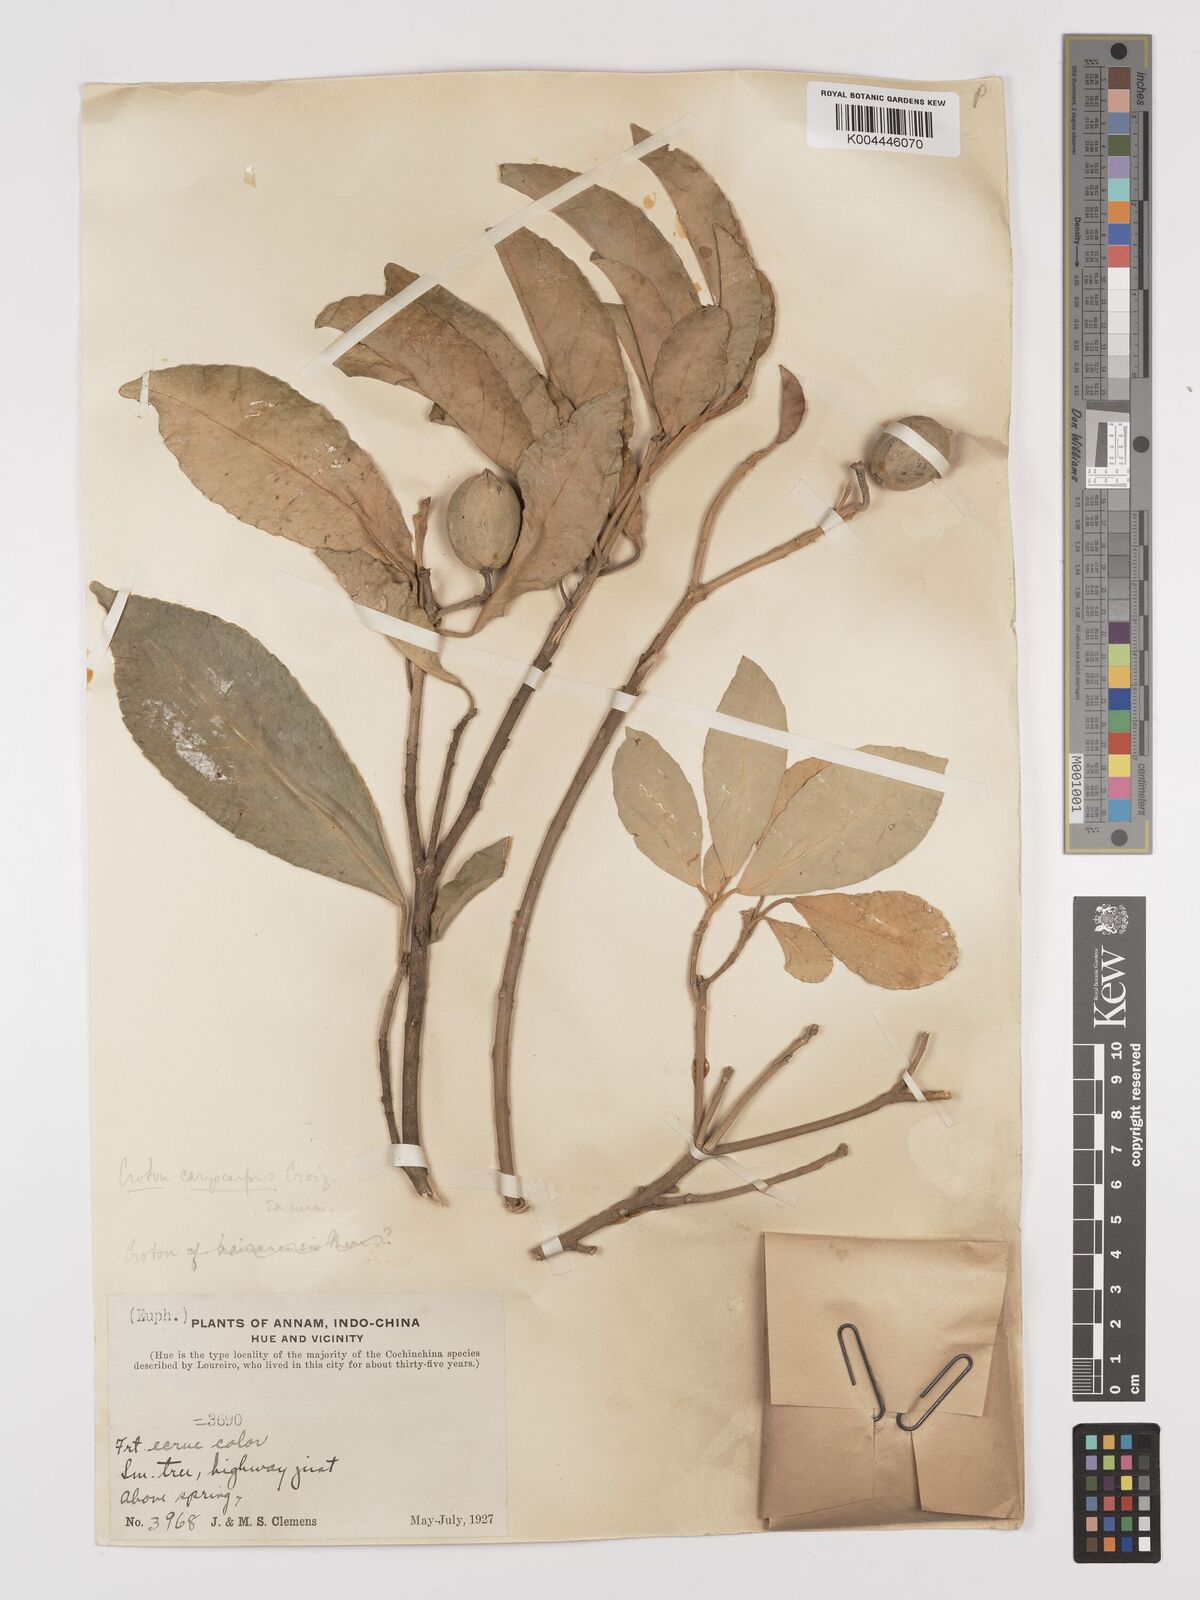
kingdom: Plantae
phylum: Tracheophyta
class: Magnoliopsida
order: Malpighiales
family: Euphorbiaceae
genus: Croton
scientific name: Croton joufra
